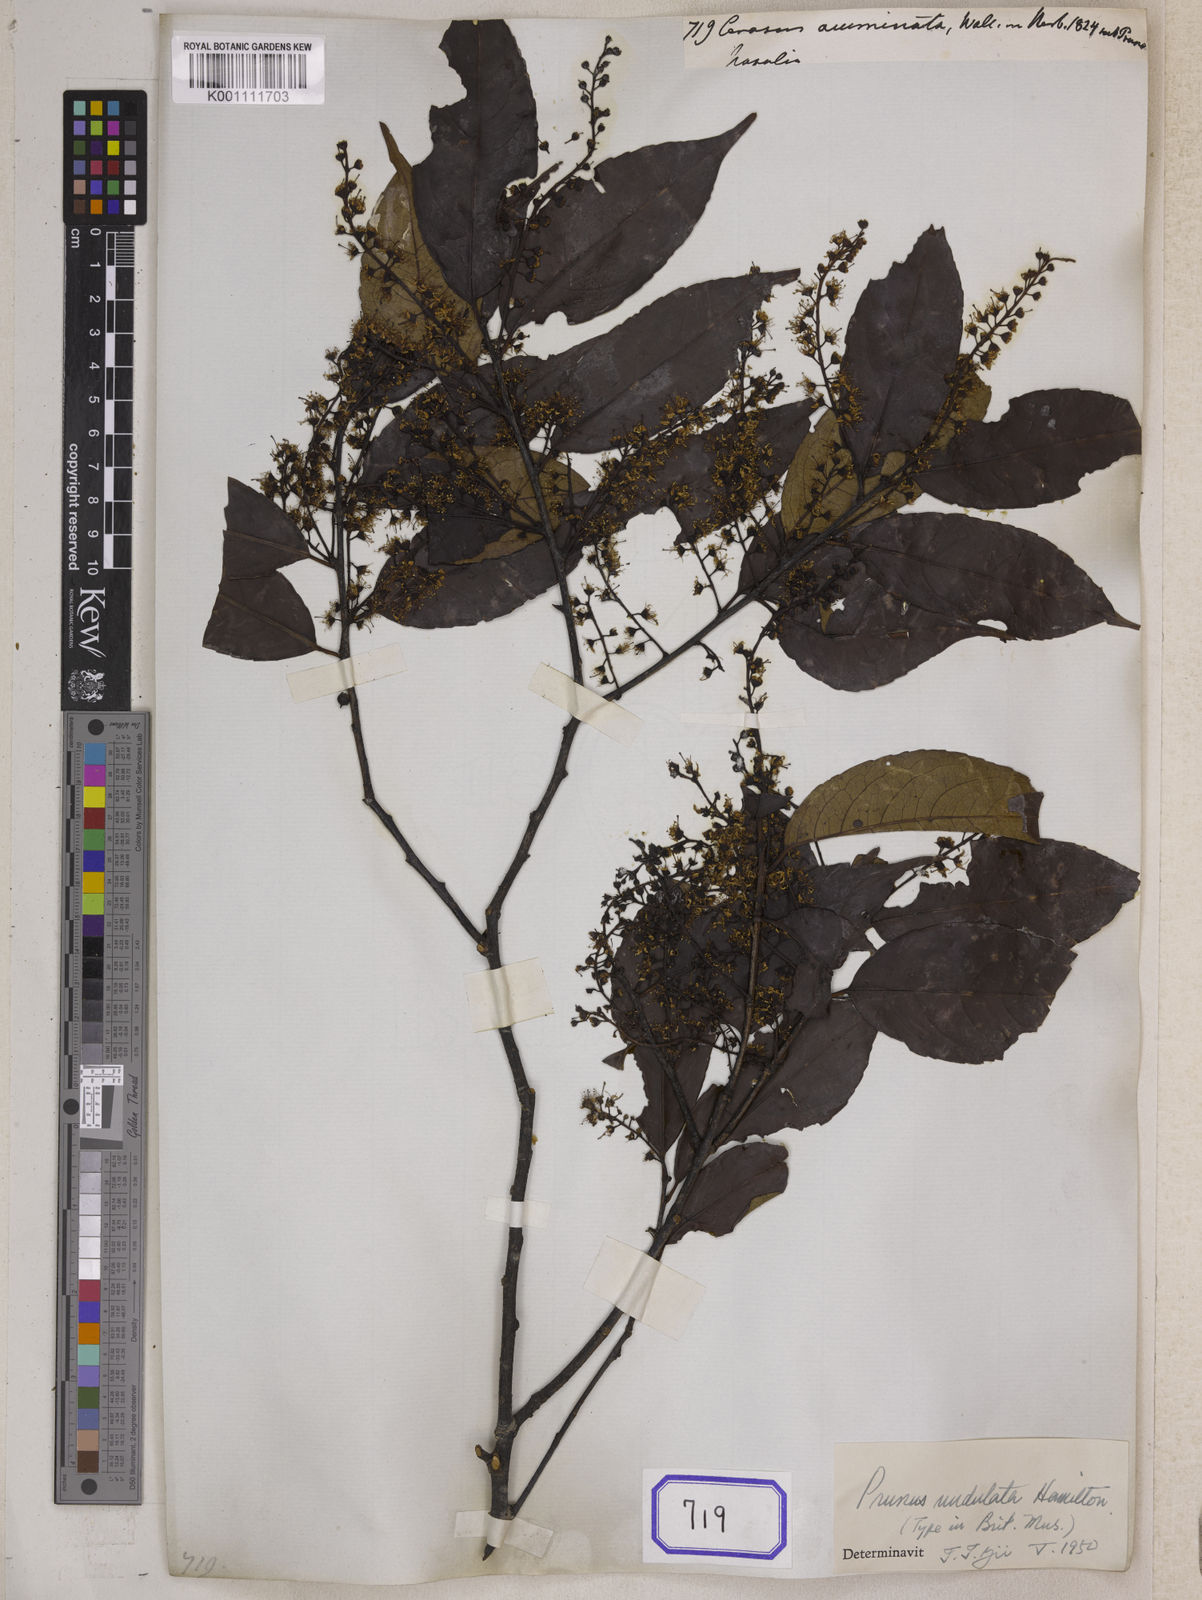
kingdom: Plantae
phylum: Tracheophyta
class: Magnoliopsida
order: Rosales
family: Rosaceae
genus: Prunus
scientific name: Prunus undulata
